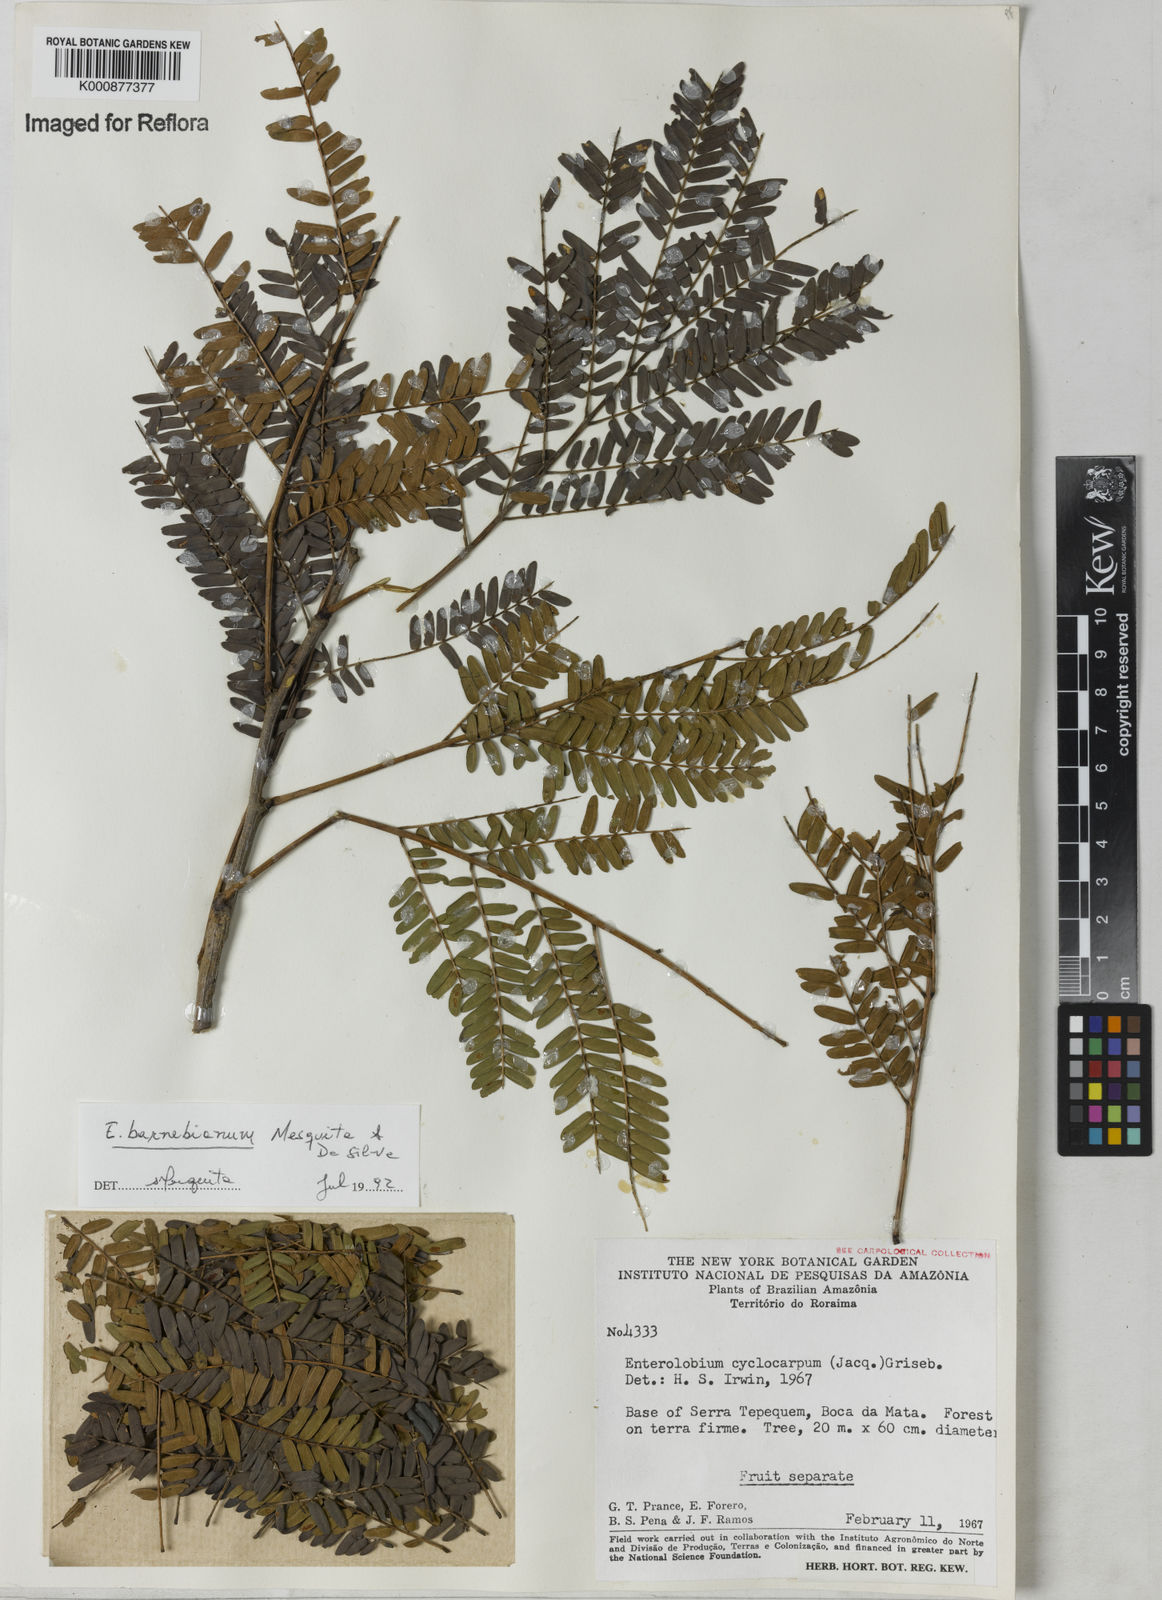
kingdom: Plantae
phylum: Tracheophyta
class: Magnoliopsida
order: Fabales
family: Fabaceae
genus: Enterolobium
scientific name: Enterolobium cyclocarpum
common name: Ear tree
